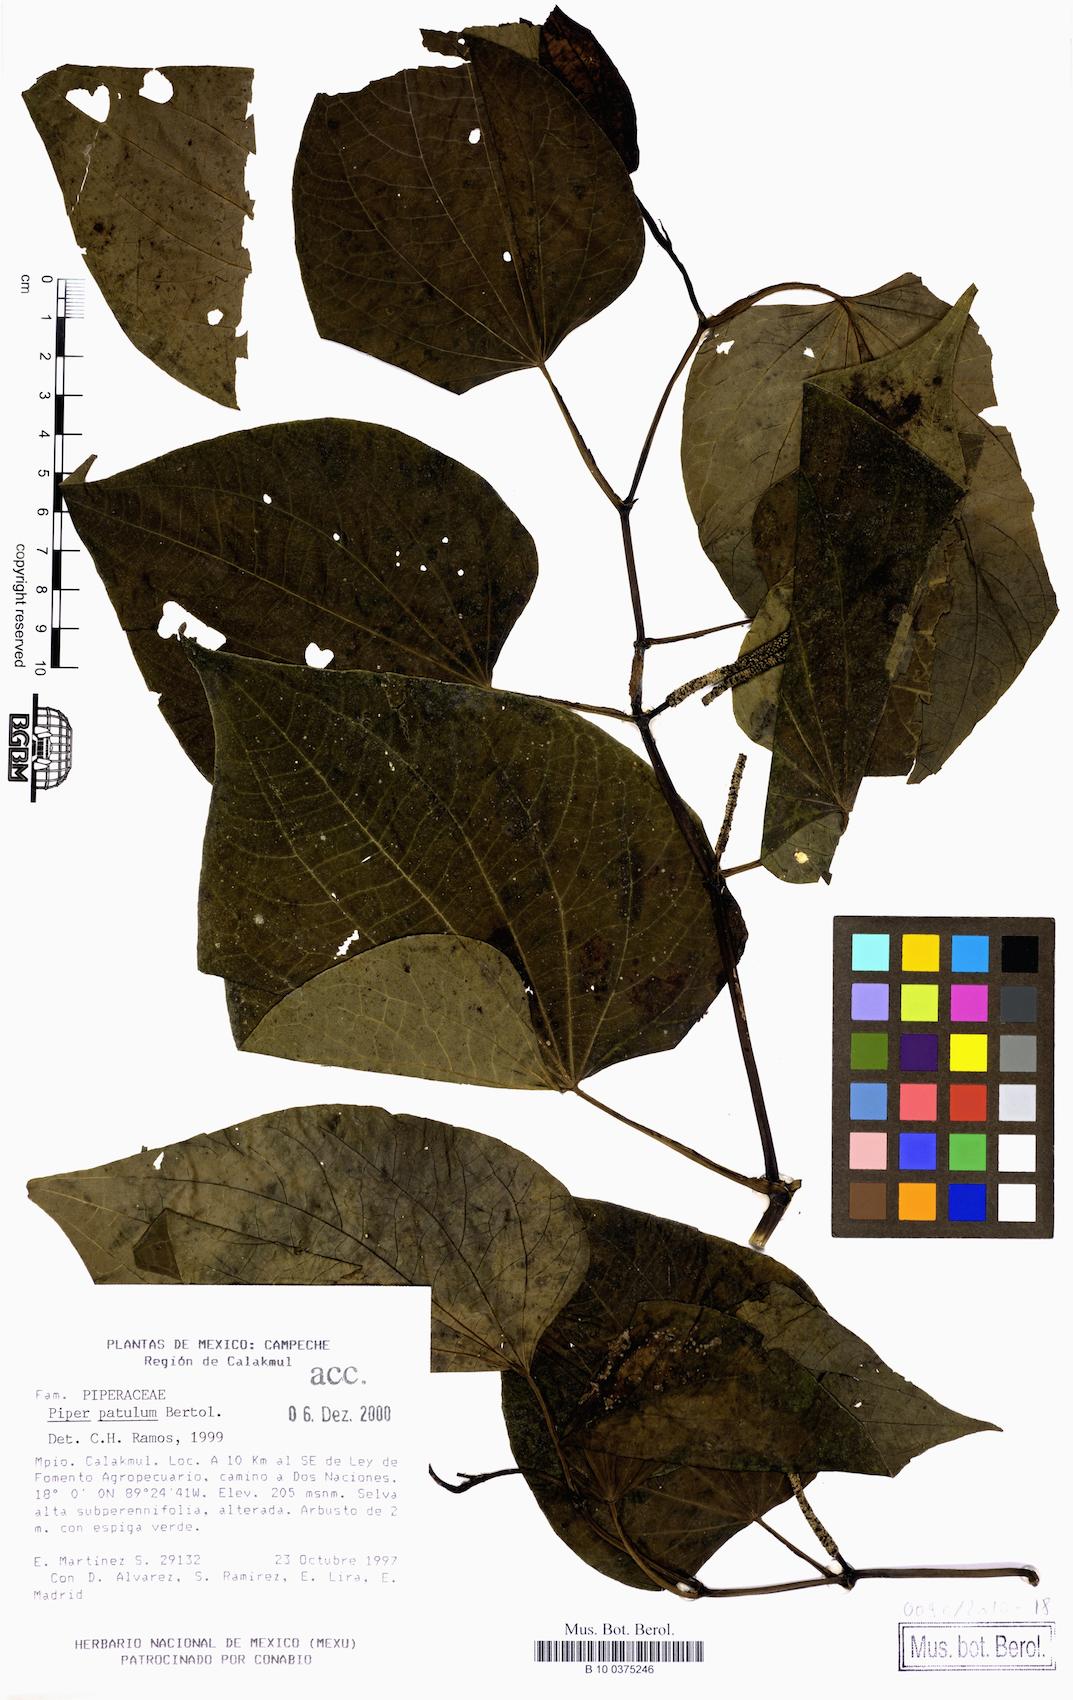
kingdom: Plantae
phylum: Tracheophyta
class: Magnoliopsida
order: Piperales
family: Piperaceae
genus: Piper
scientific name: Piper marginatum
